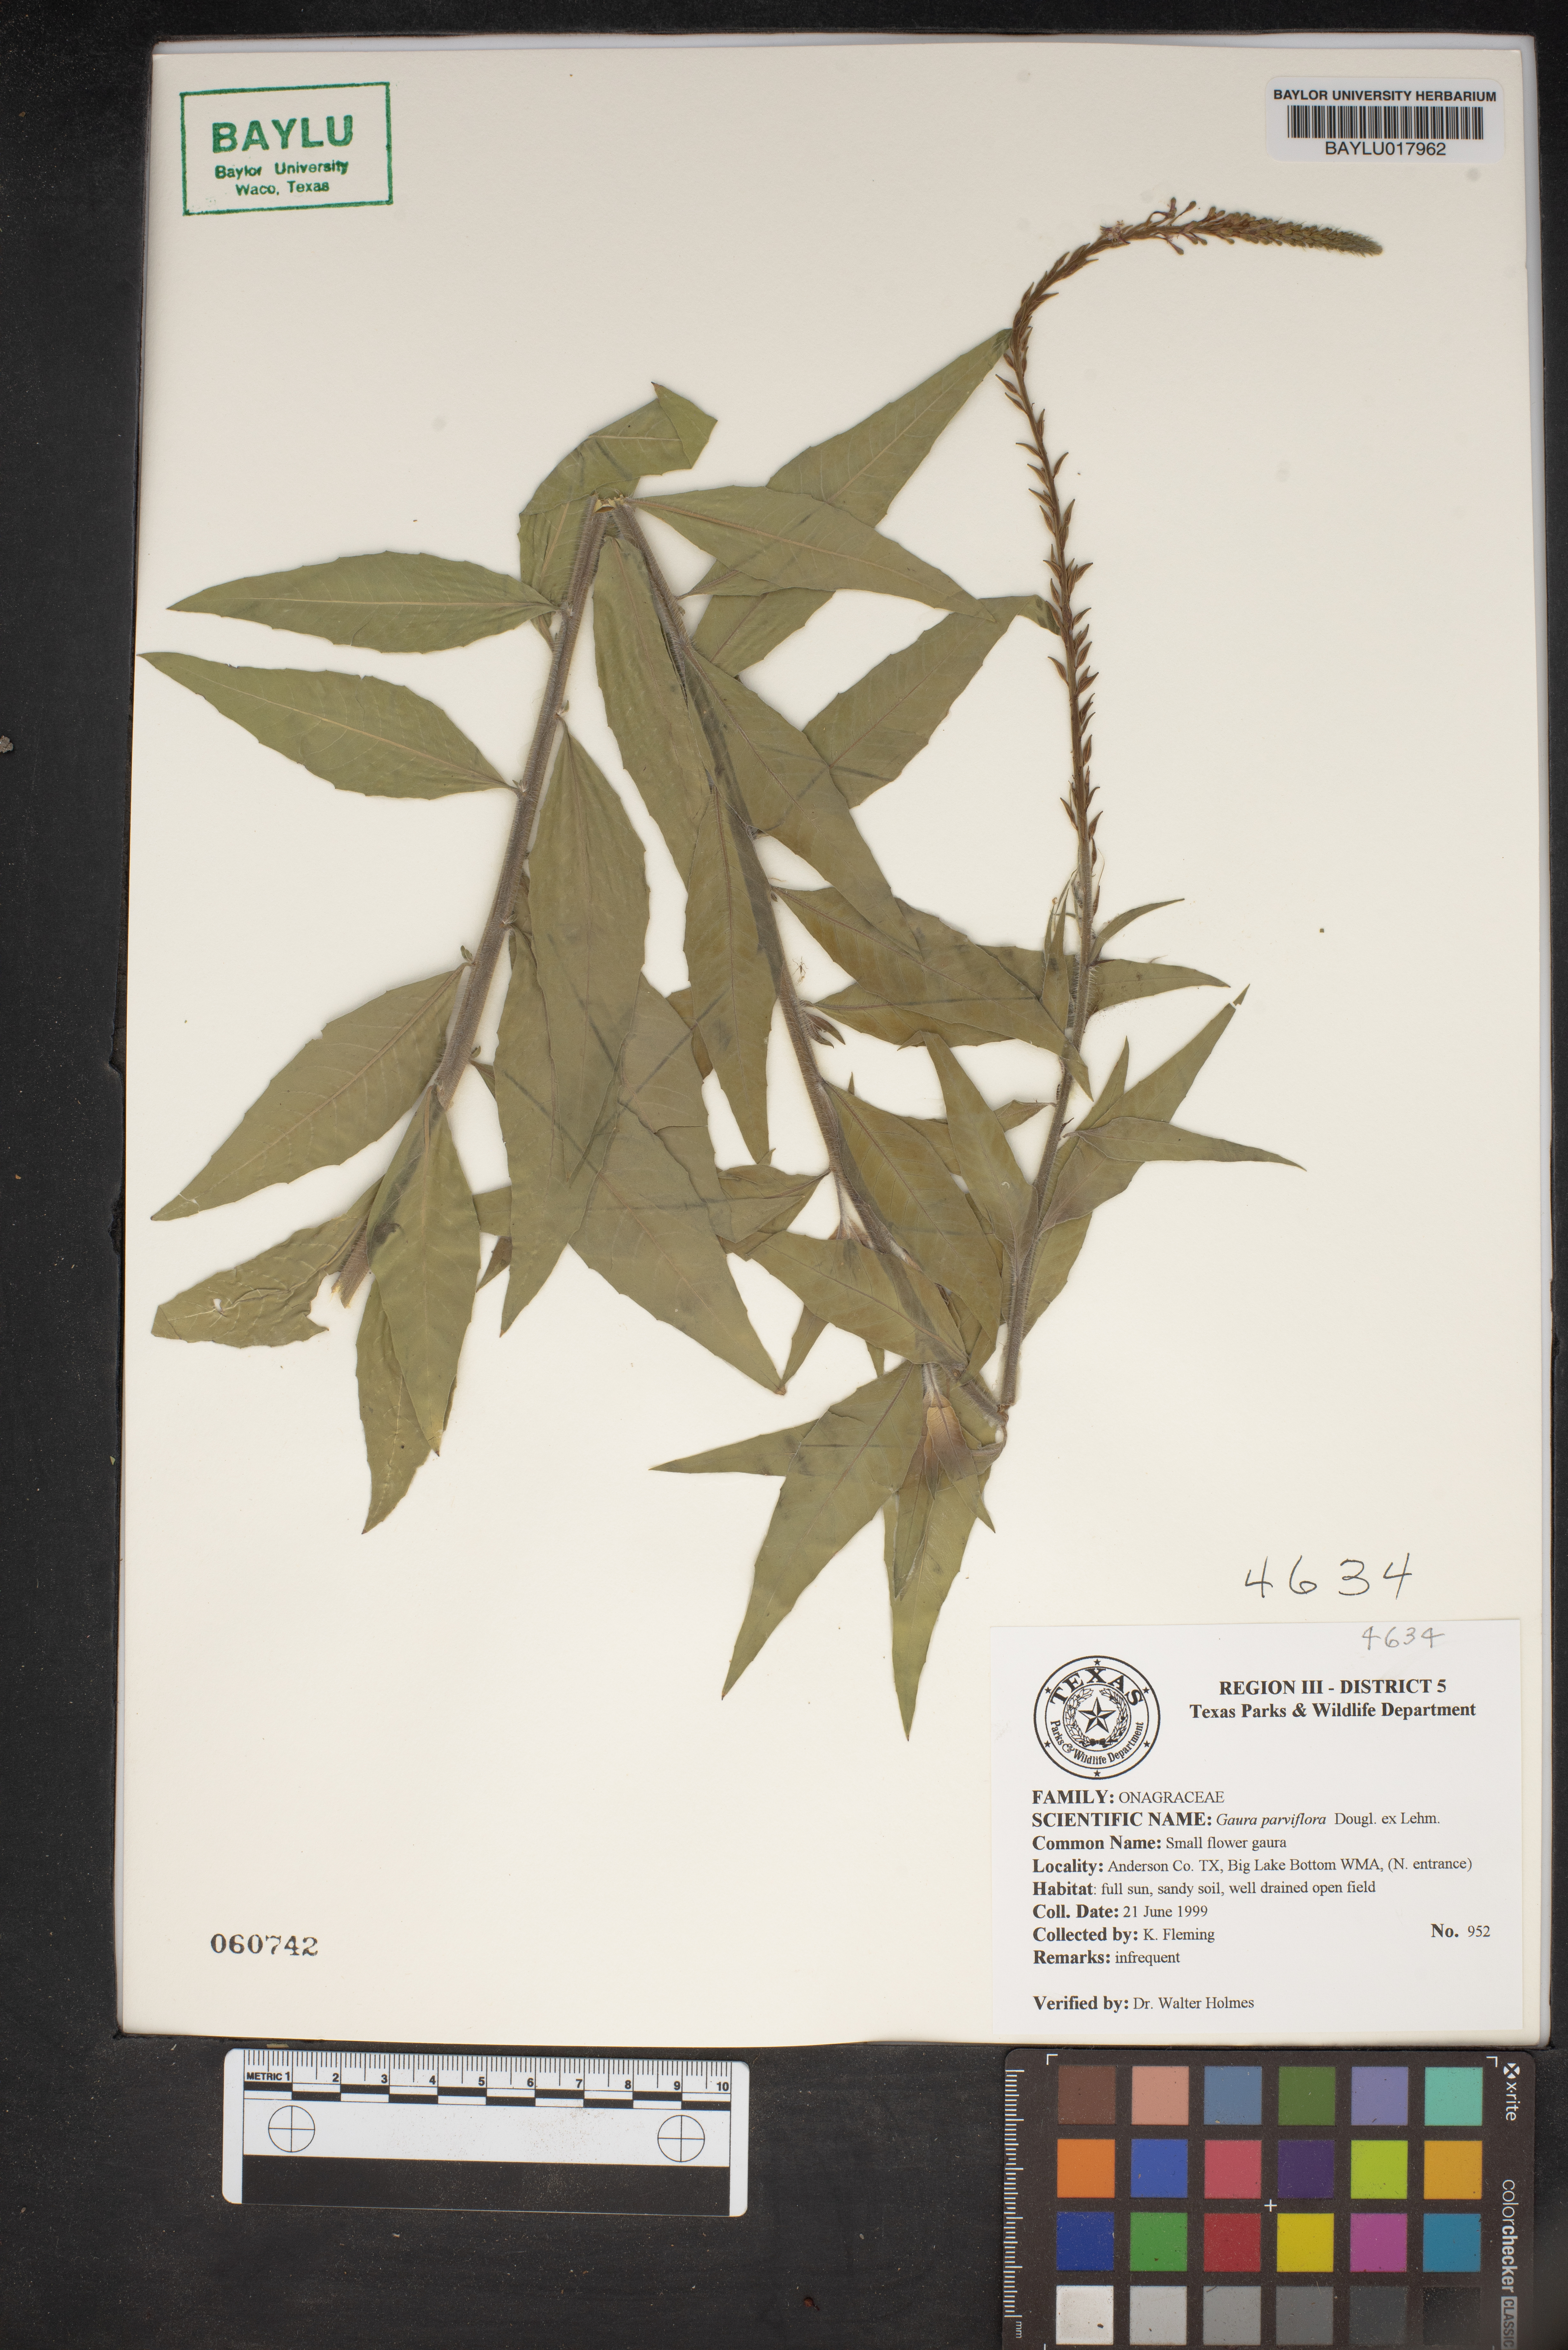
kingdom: Plantae
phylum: Tracheophyta
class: Magnoliopsida
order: Myrtales
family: Onagraceae
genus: Oenothera
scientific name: Oenothera curtiflora
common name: Velvetweed
